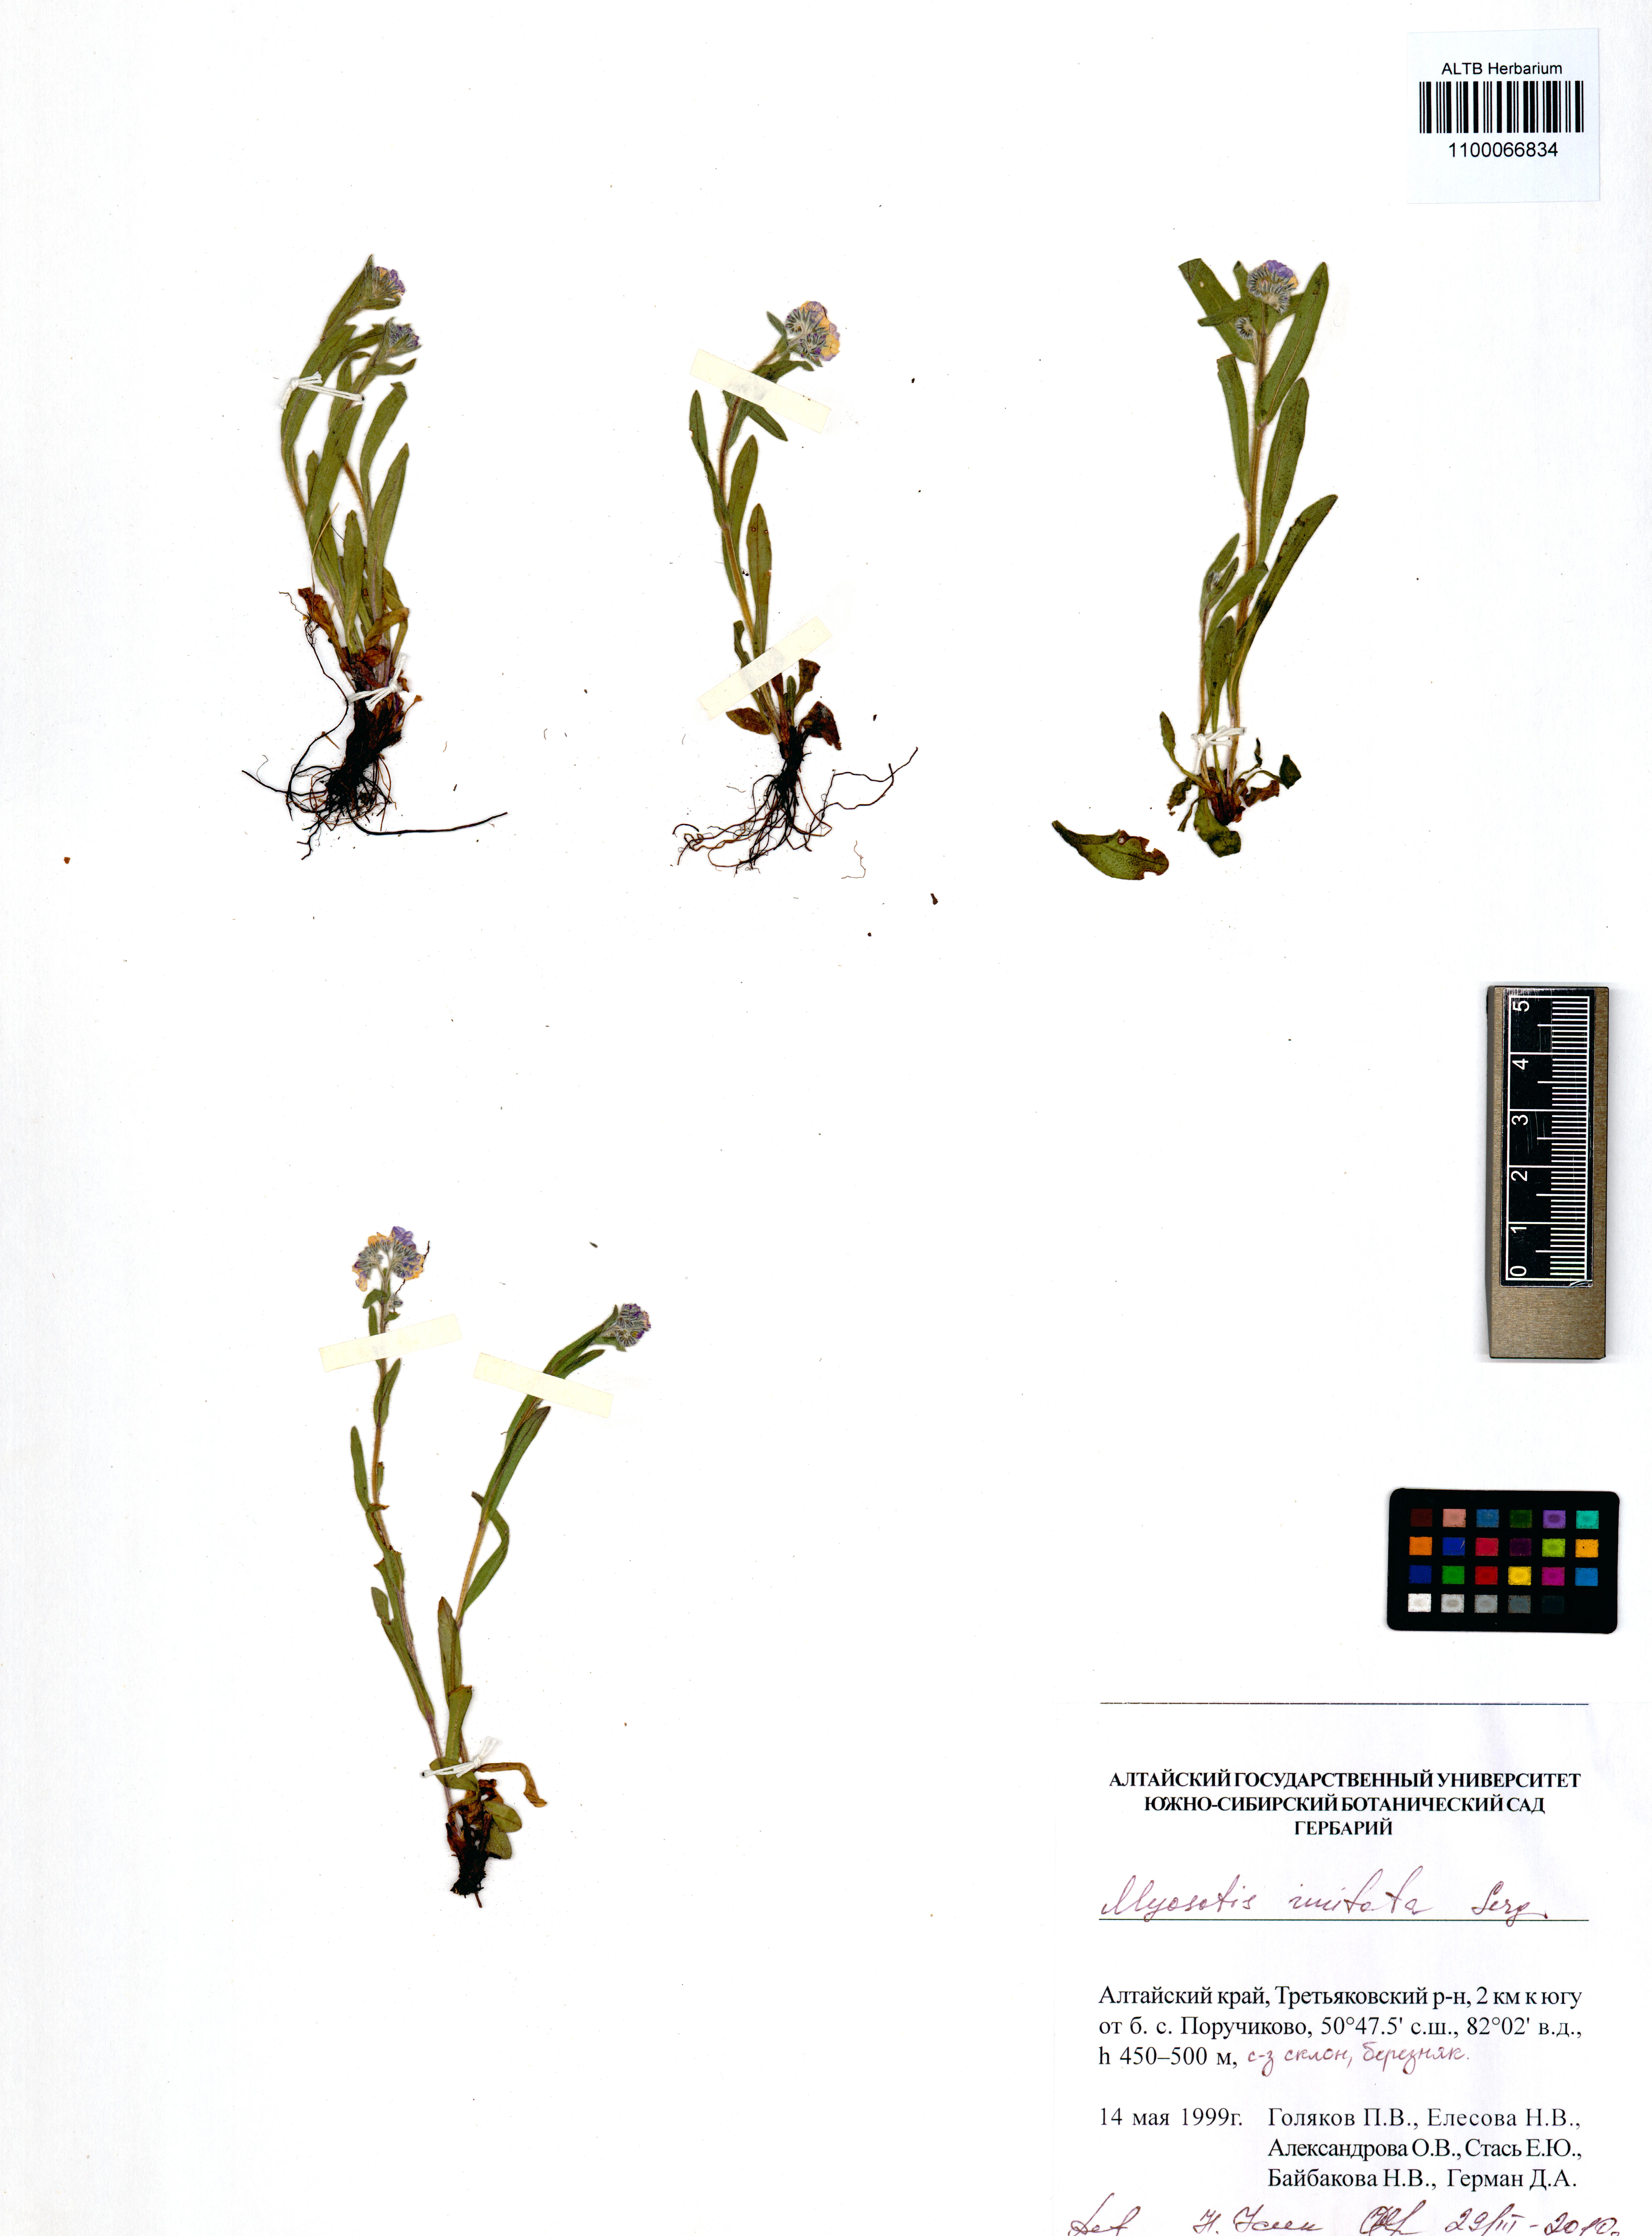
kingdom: Plantae
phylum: Tracheophyta
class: Magnoliopsida
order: Boraginales
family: Boraginaceae
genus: Myosotis
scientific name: Myosotis imitata
